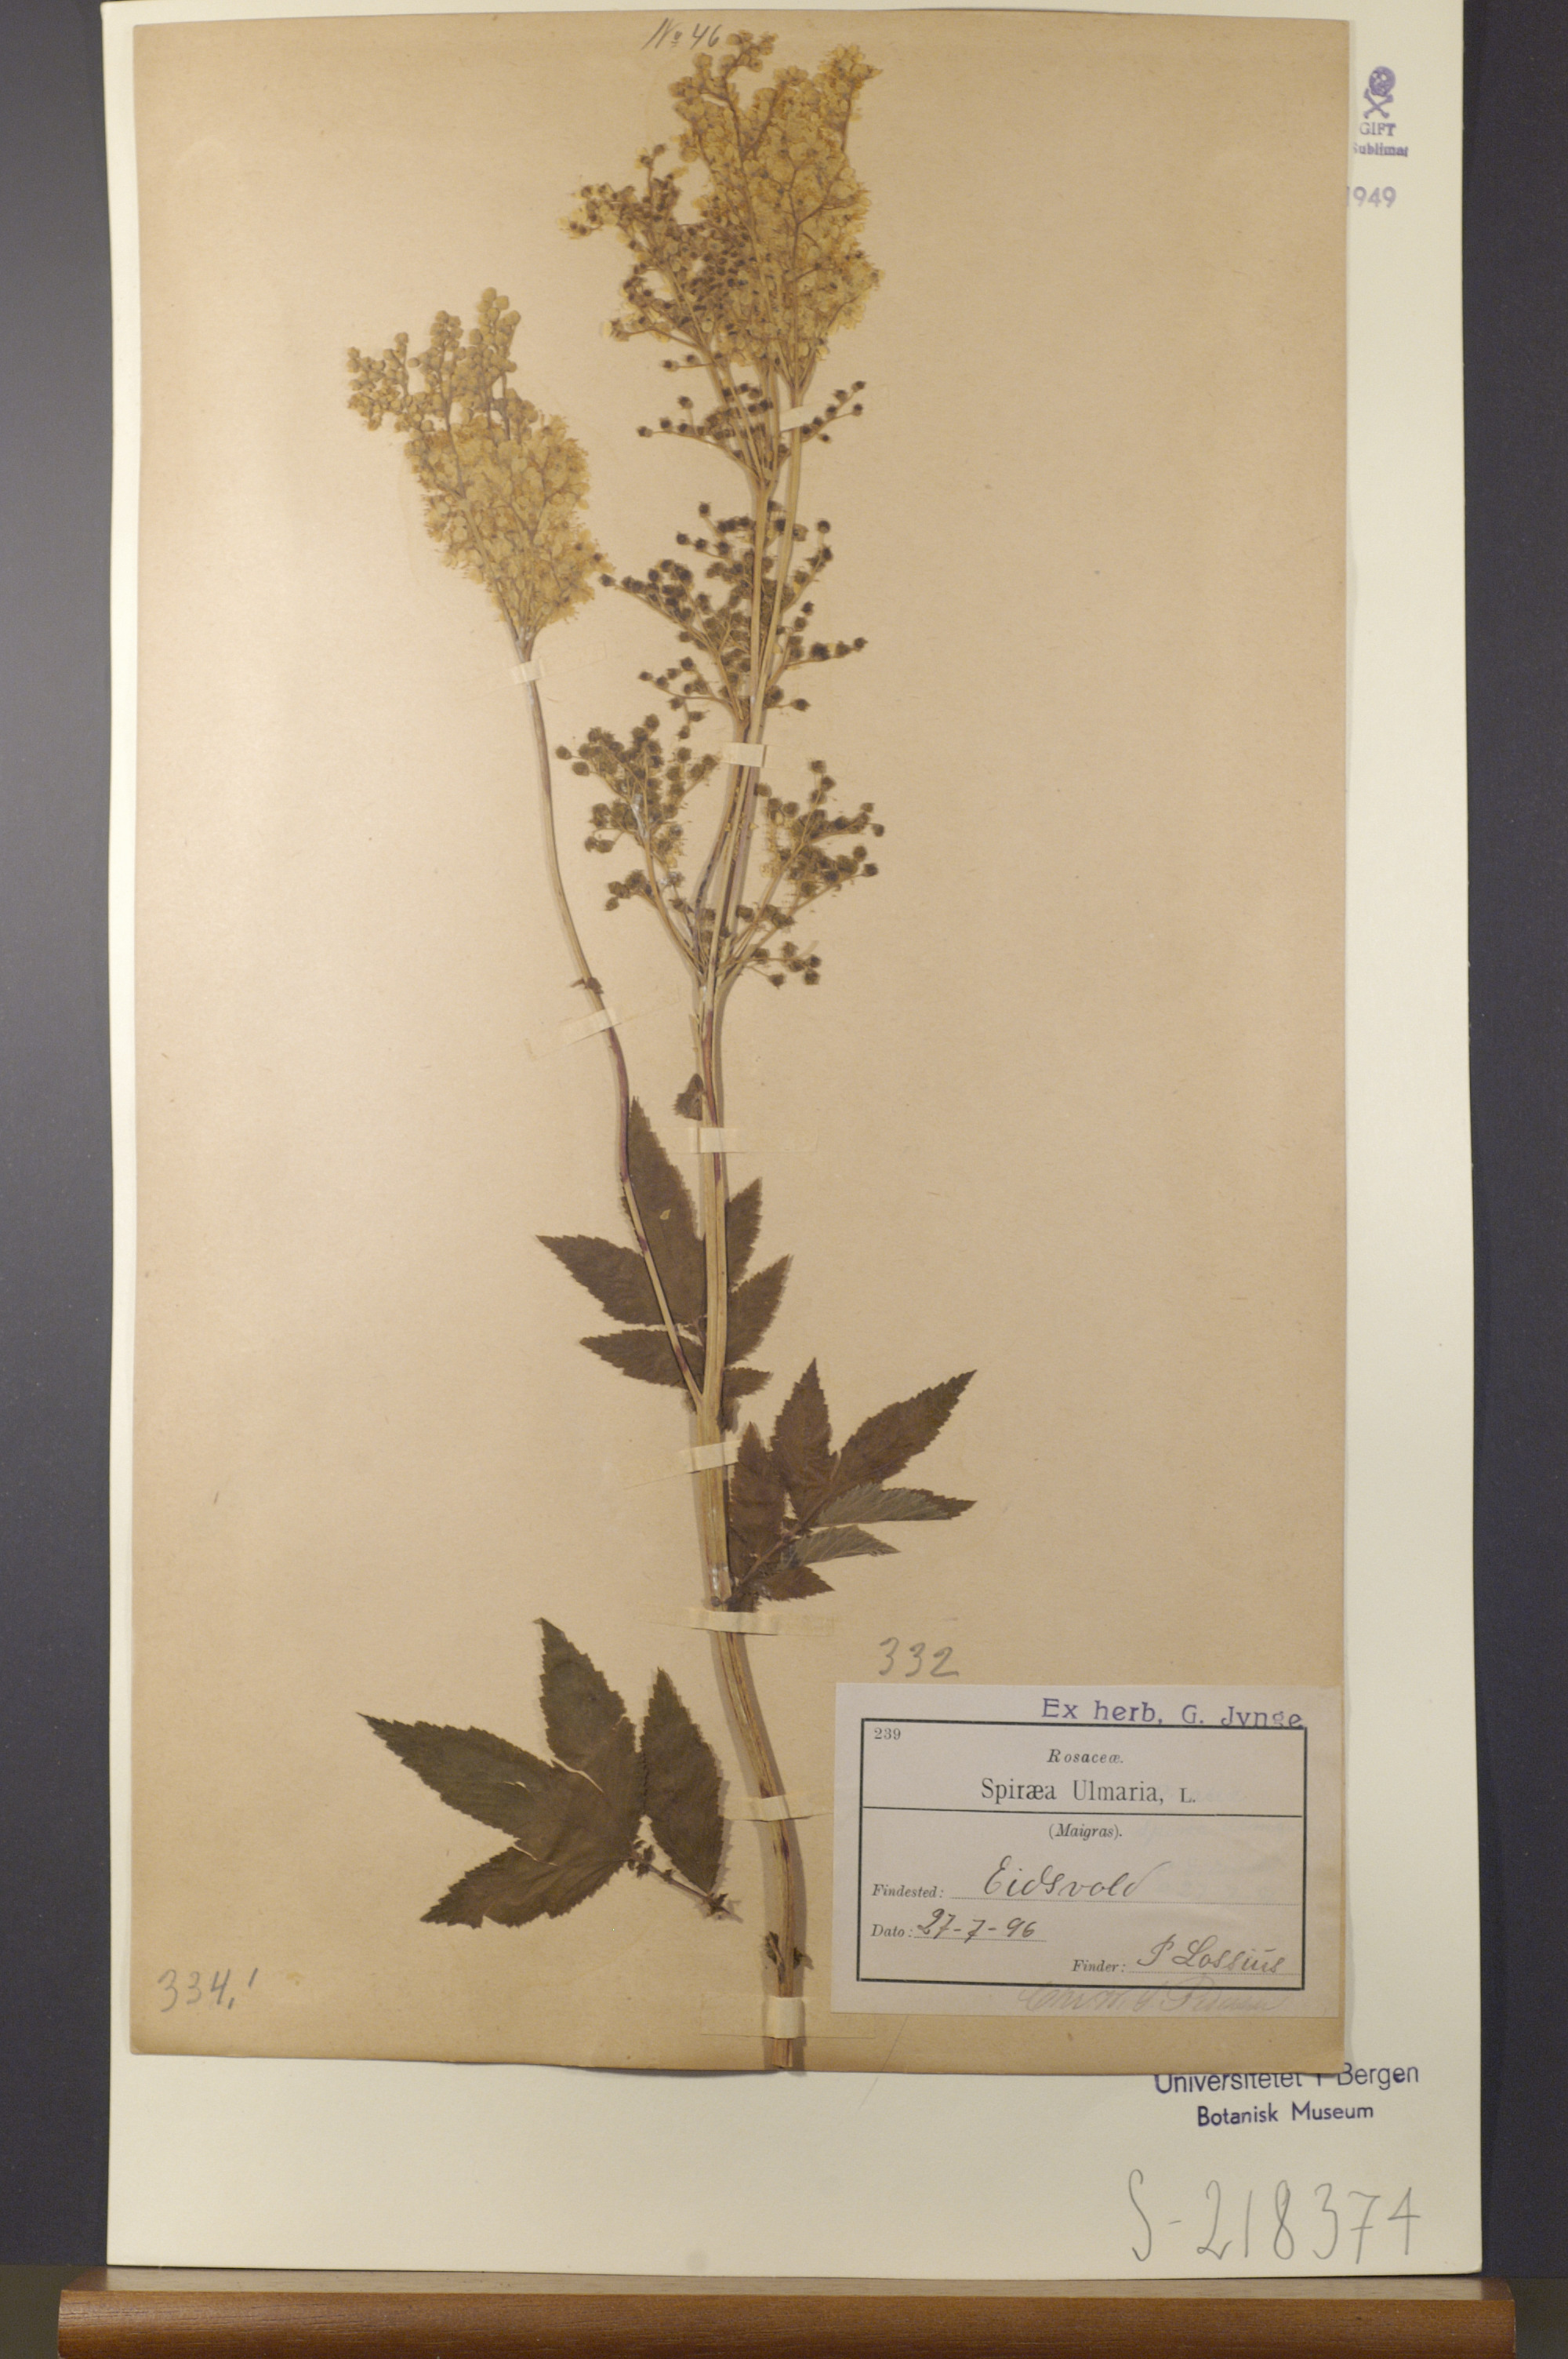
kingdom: Plantae
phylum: Tracheophyta
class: Magnoliopsida
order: Rosales
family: Rosaceae
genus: Filipendula
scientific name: Filipendula ulmaria
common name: Meadowsweet
